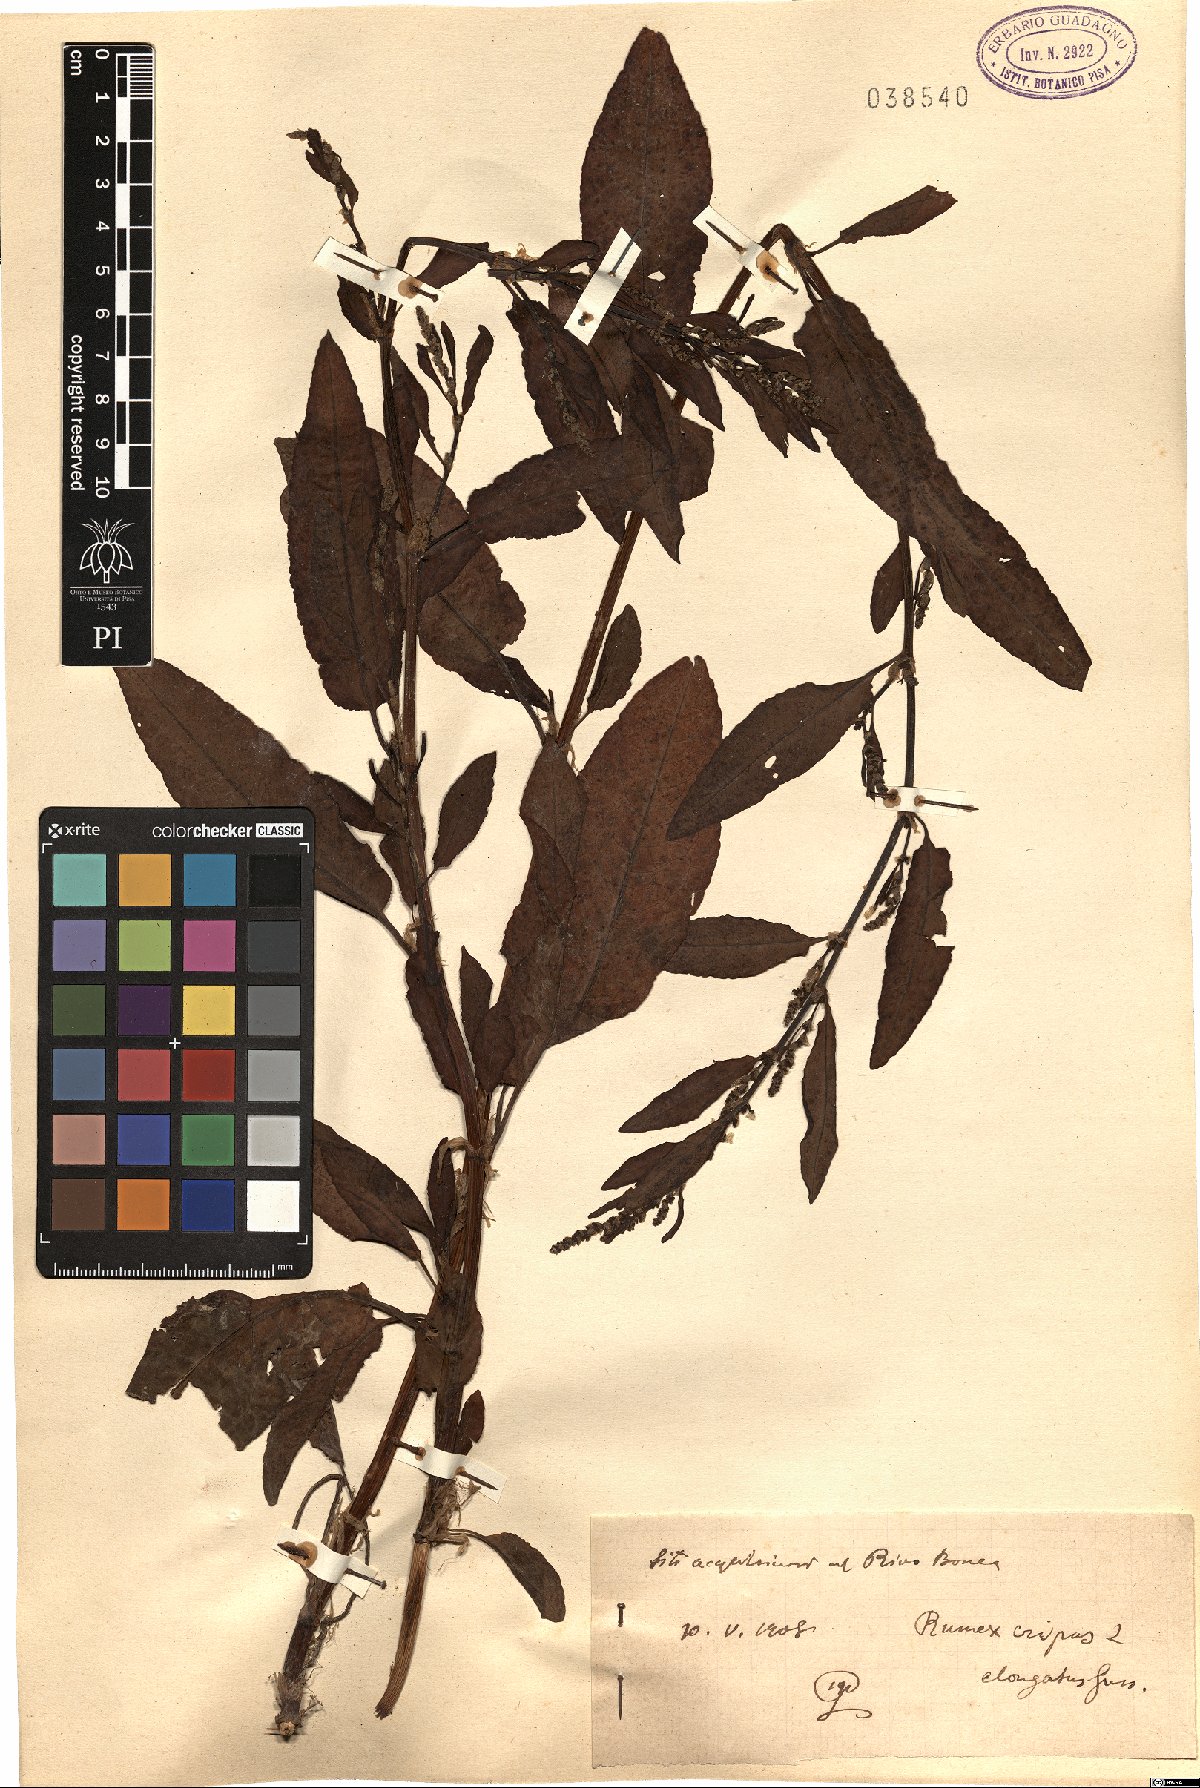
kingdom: Plantae
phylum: Tracheophyta
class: Magnoliopsida
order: Caryophyllales
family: Polygonaceae
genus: Rumex
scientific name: Rumex crispus
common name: Curled dock
